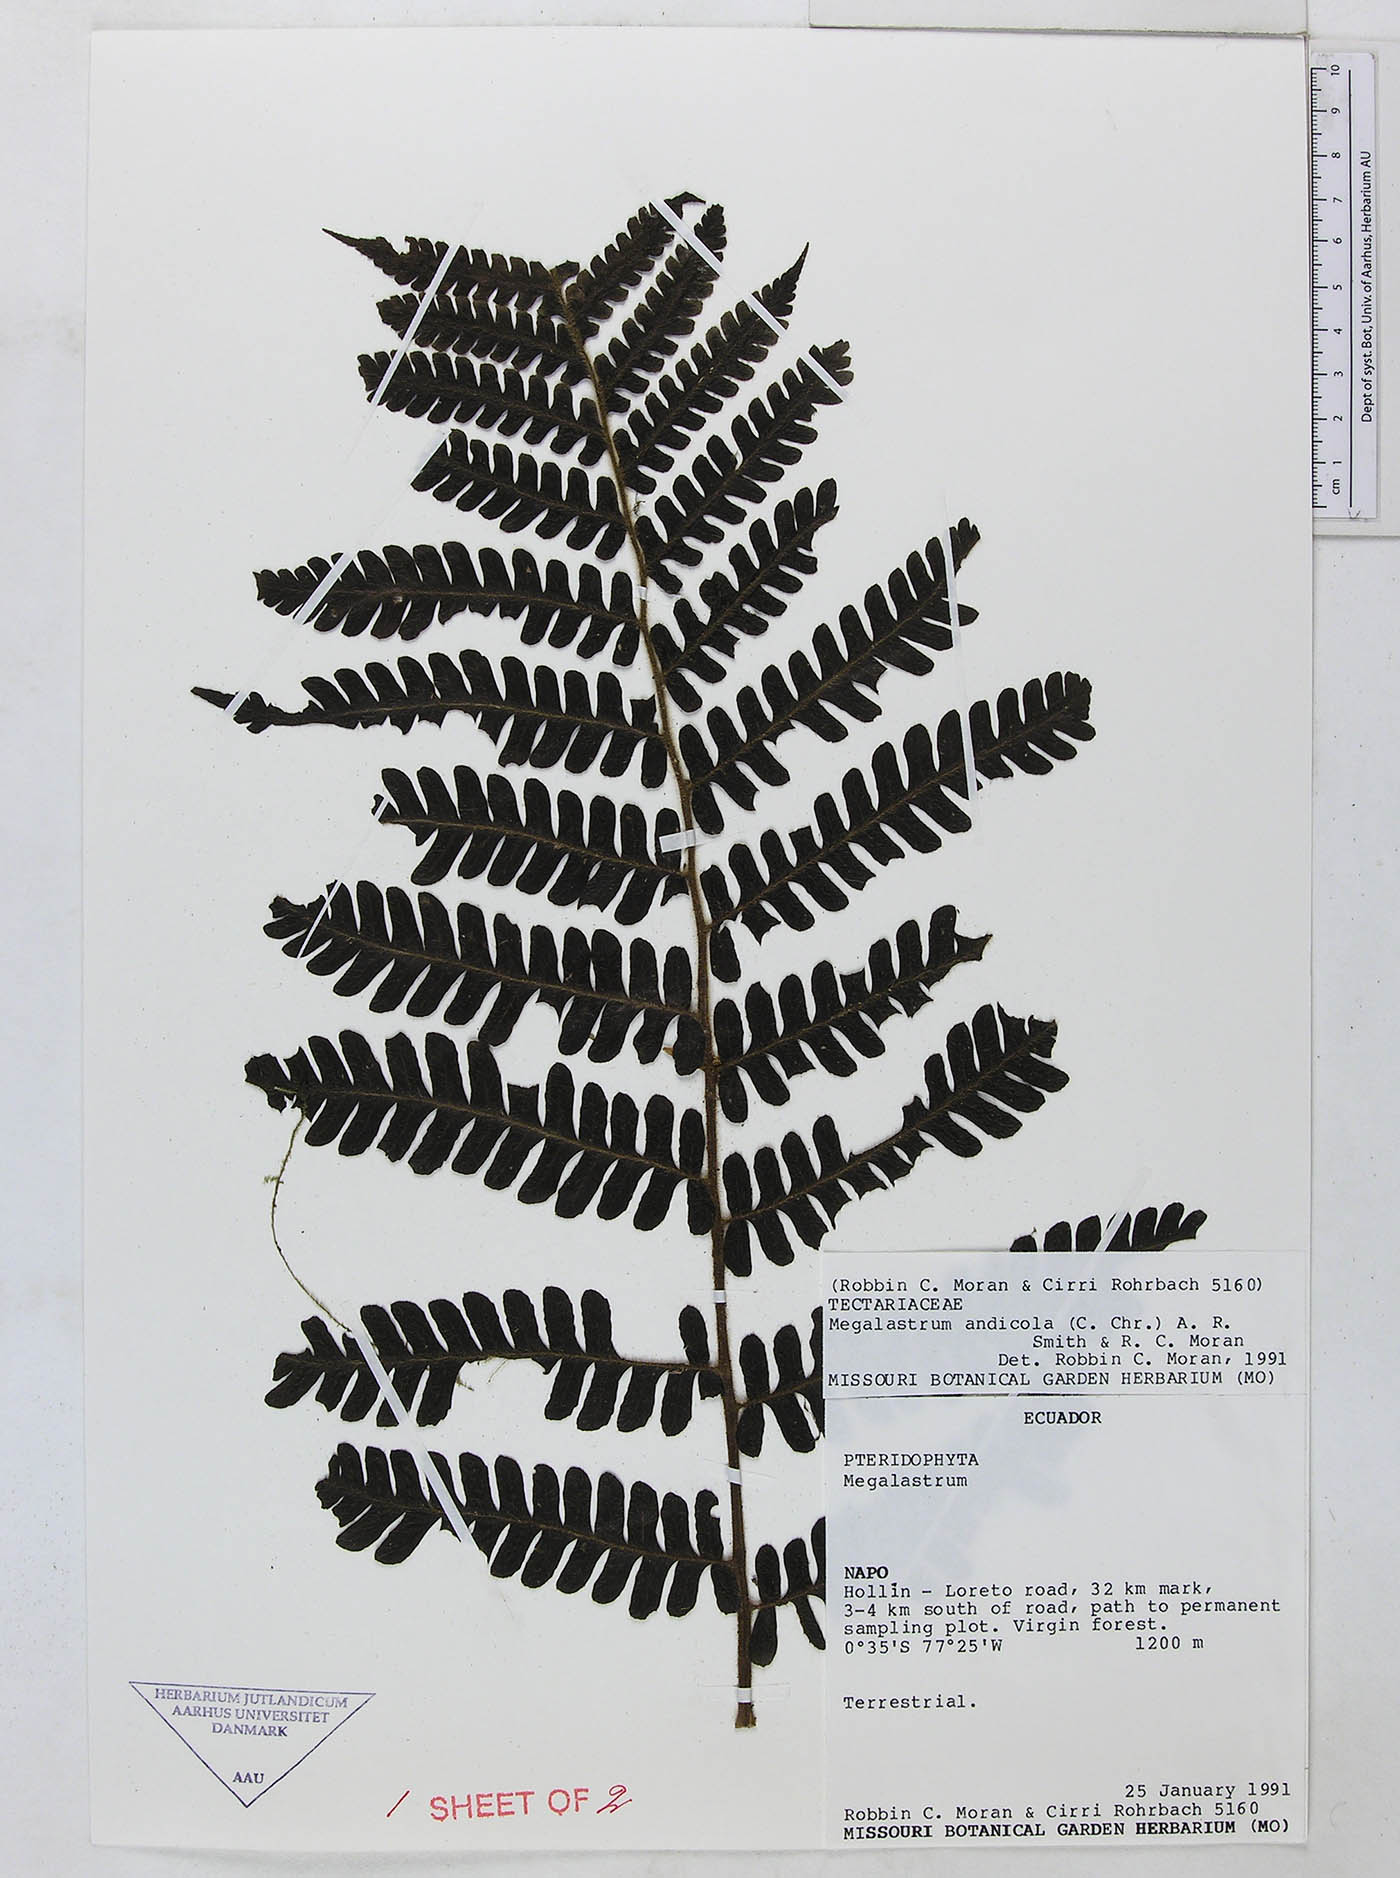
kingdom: Plantae
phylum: Tracheophyta
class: Polypodiopsida
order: Polypodiales
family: Dryopteridaceae
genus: Megalastrum
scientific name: Megalastrum hirsutosetosum
